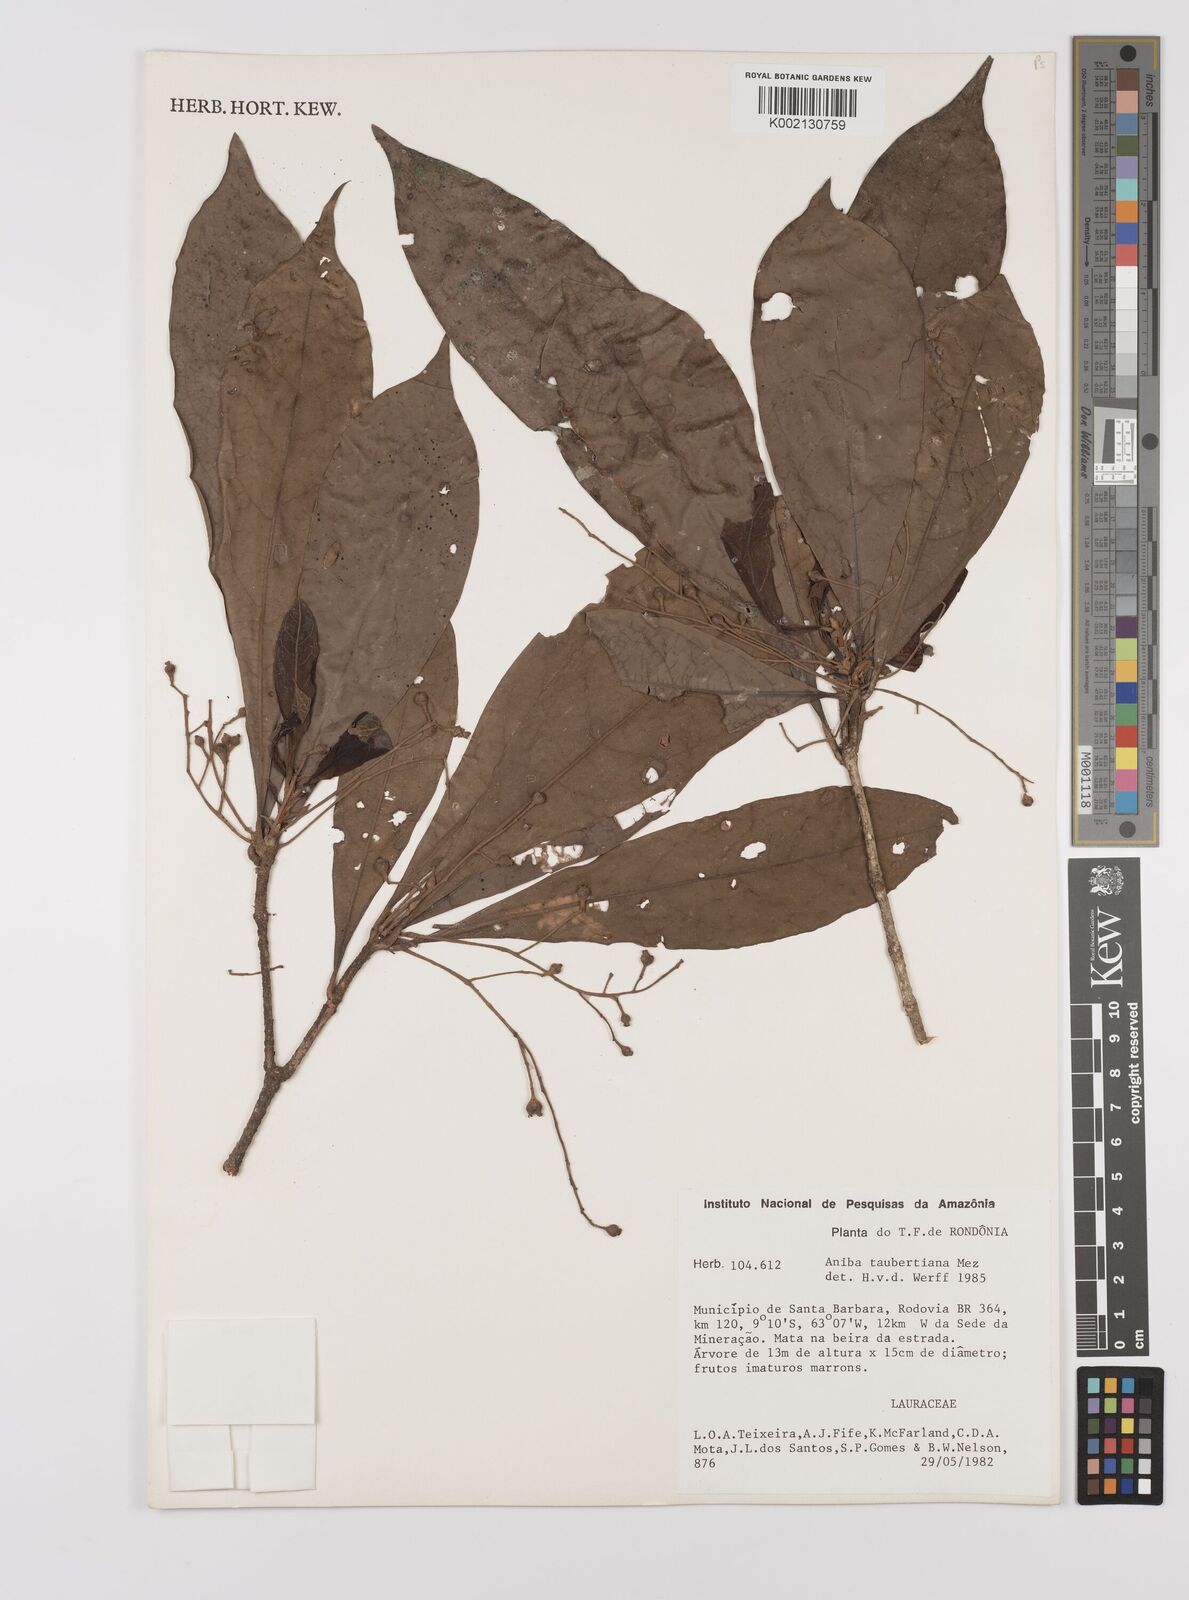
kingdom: Plantae
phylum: Tracheophyta
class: Magnoliopsida
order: Laurales
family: Lauraceae
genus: Aniba
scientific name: Aniba taubertiana
